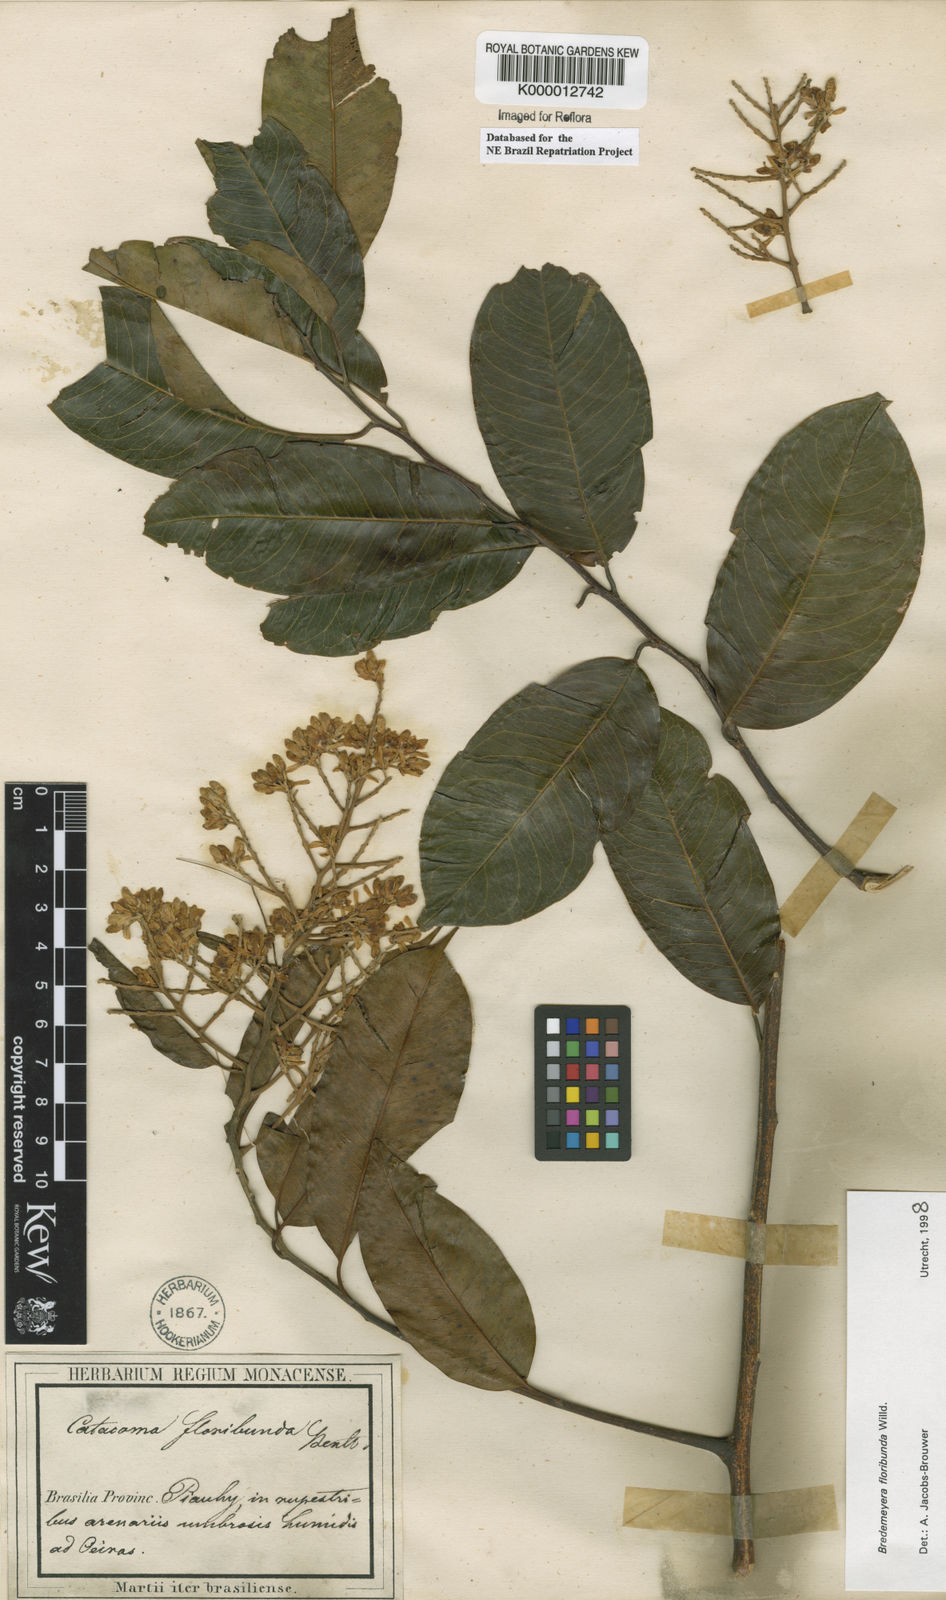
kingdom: Plantae
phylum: Tracheophyta
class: Magnoliopsida
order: Fabales
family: Polygalaceae
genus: Bredemeyera
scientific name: Bredemeyera floribunda
